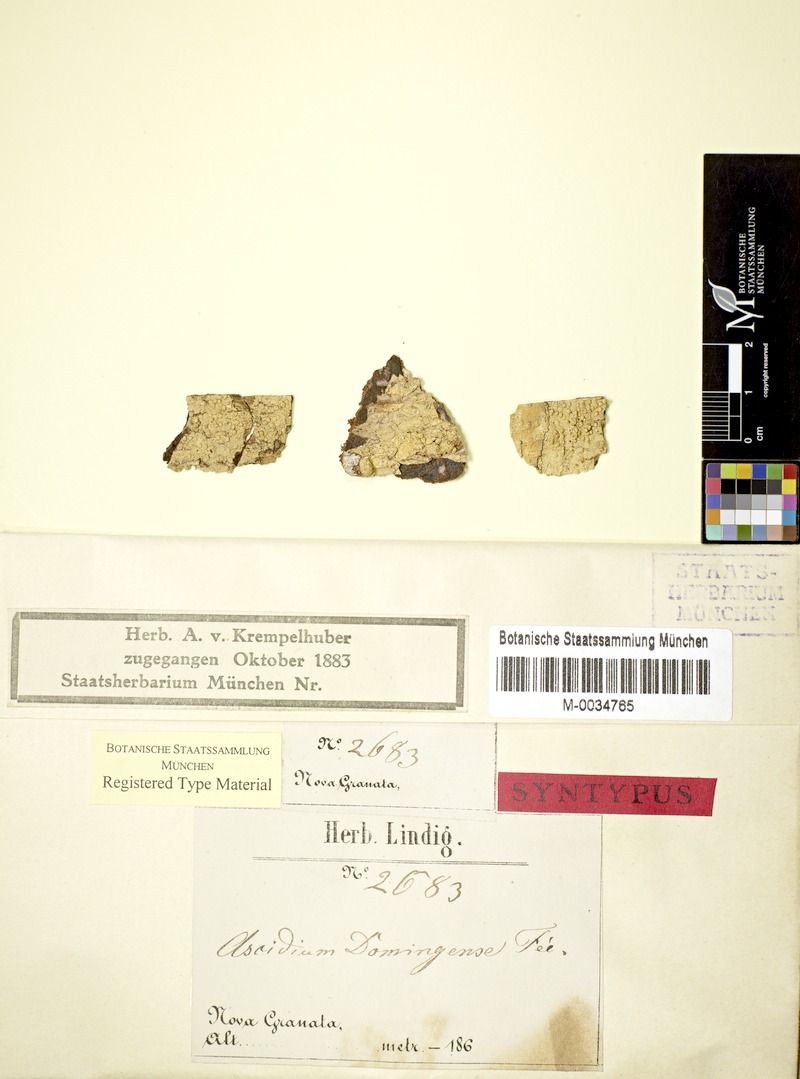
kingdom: Fungi
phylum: Ascomycota
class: Lecanoromycetes
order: Ostropales
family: Graphidaceae
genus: Ocellularia
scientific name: Ocellularia domingensis
